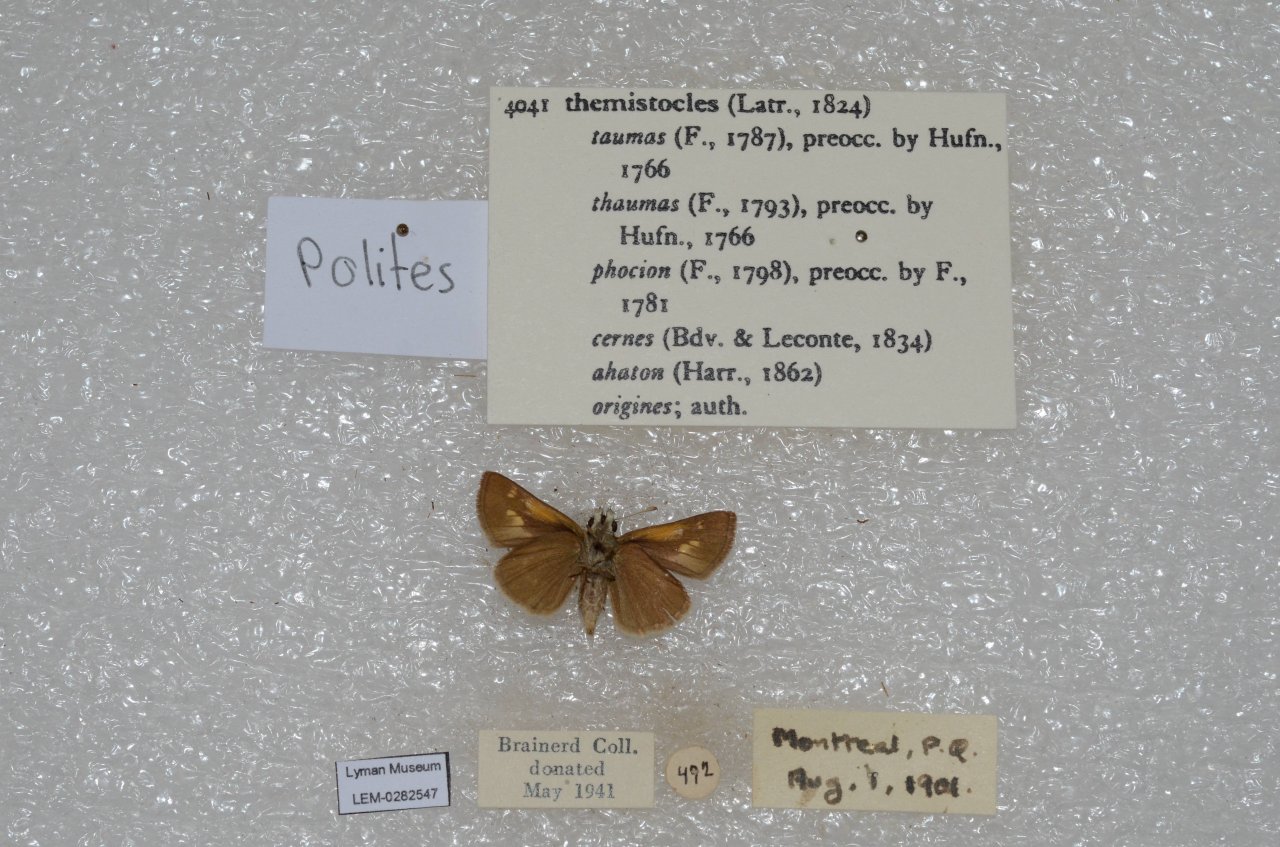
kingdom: Animalia
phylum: Arthropoda
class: Insecta
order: Lepidoptera
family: Hesperiidae
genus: Polites
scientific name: Polites themistocles
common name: Tawny-edged Skipper
